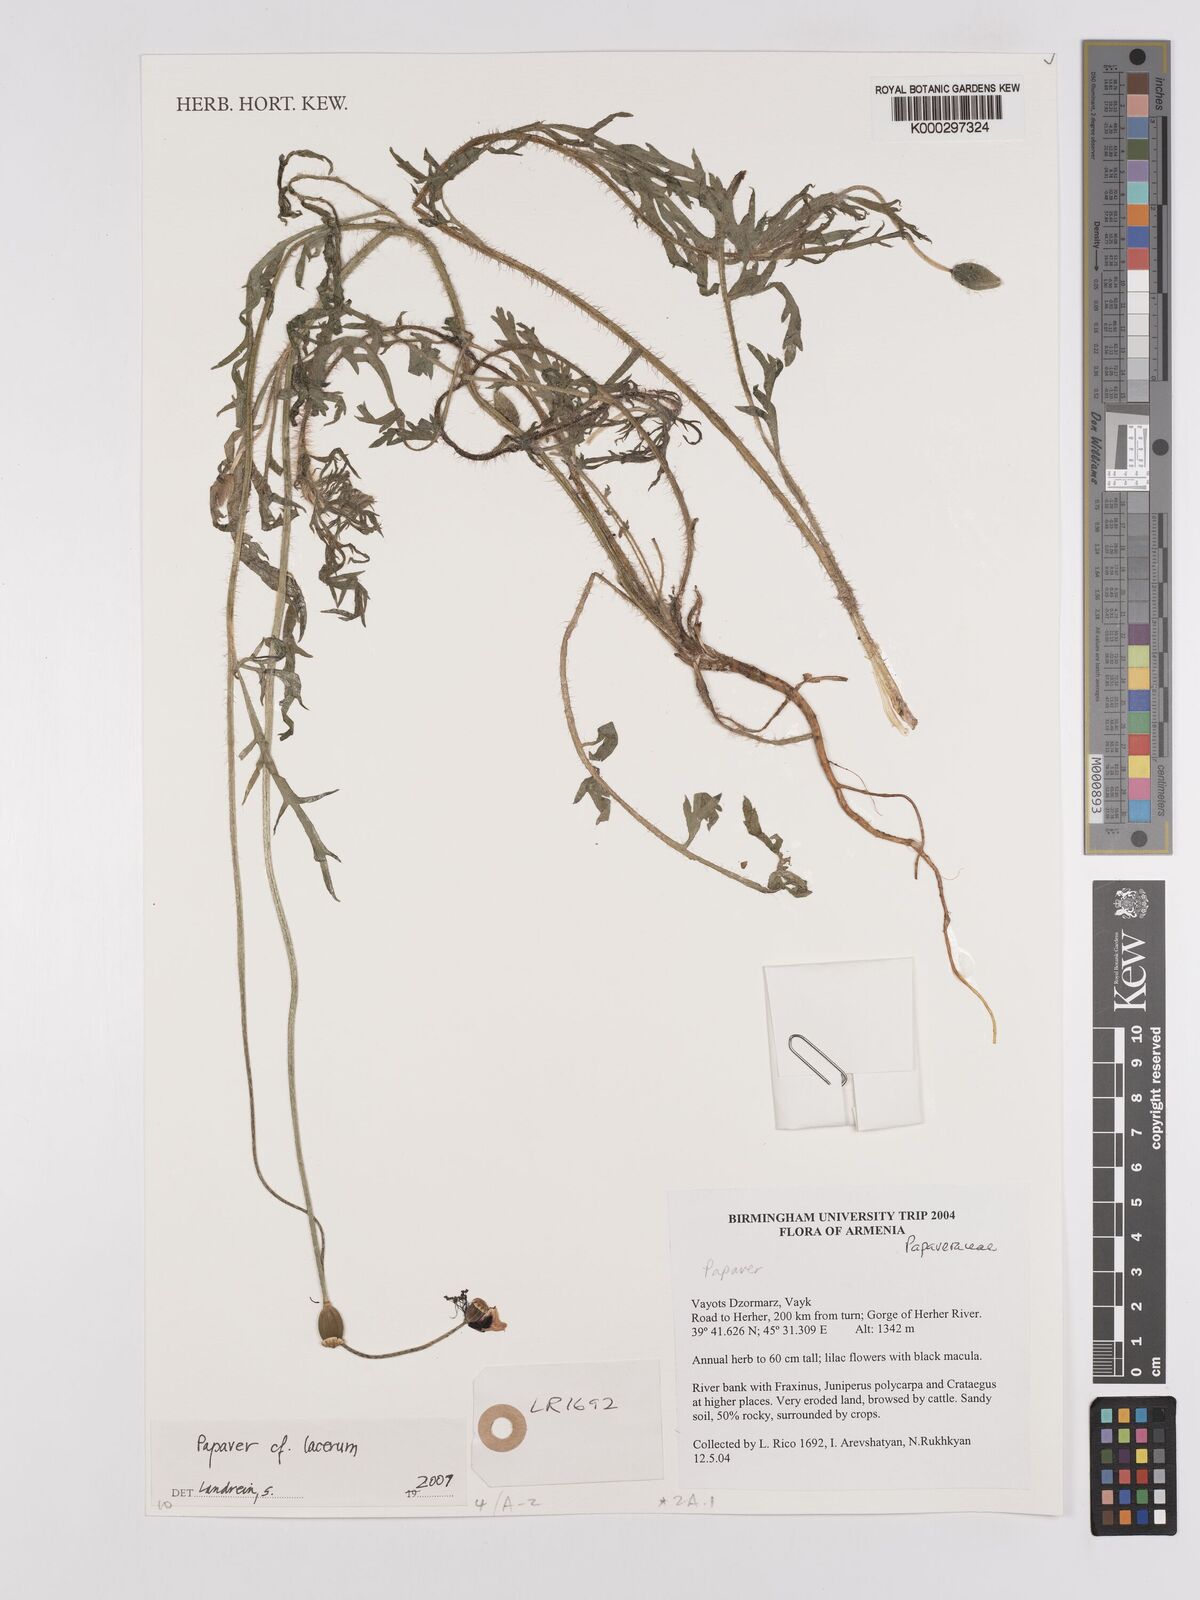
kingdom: Plantae
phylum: Tracheophyta
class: Magnoliopsida
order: Ranunculales
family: Papaveraceae
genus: Papaver
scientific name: Papaver laevigatum
